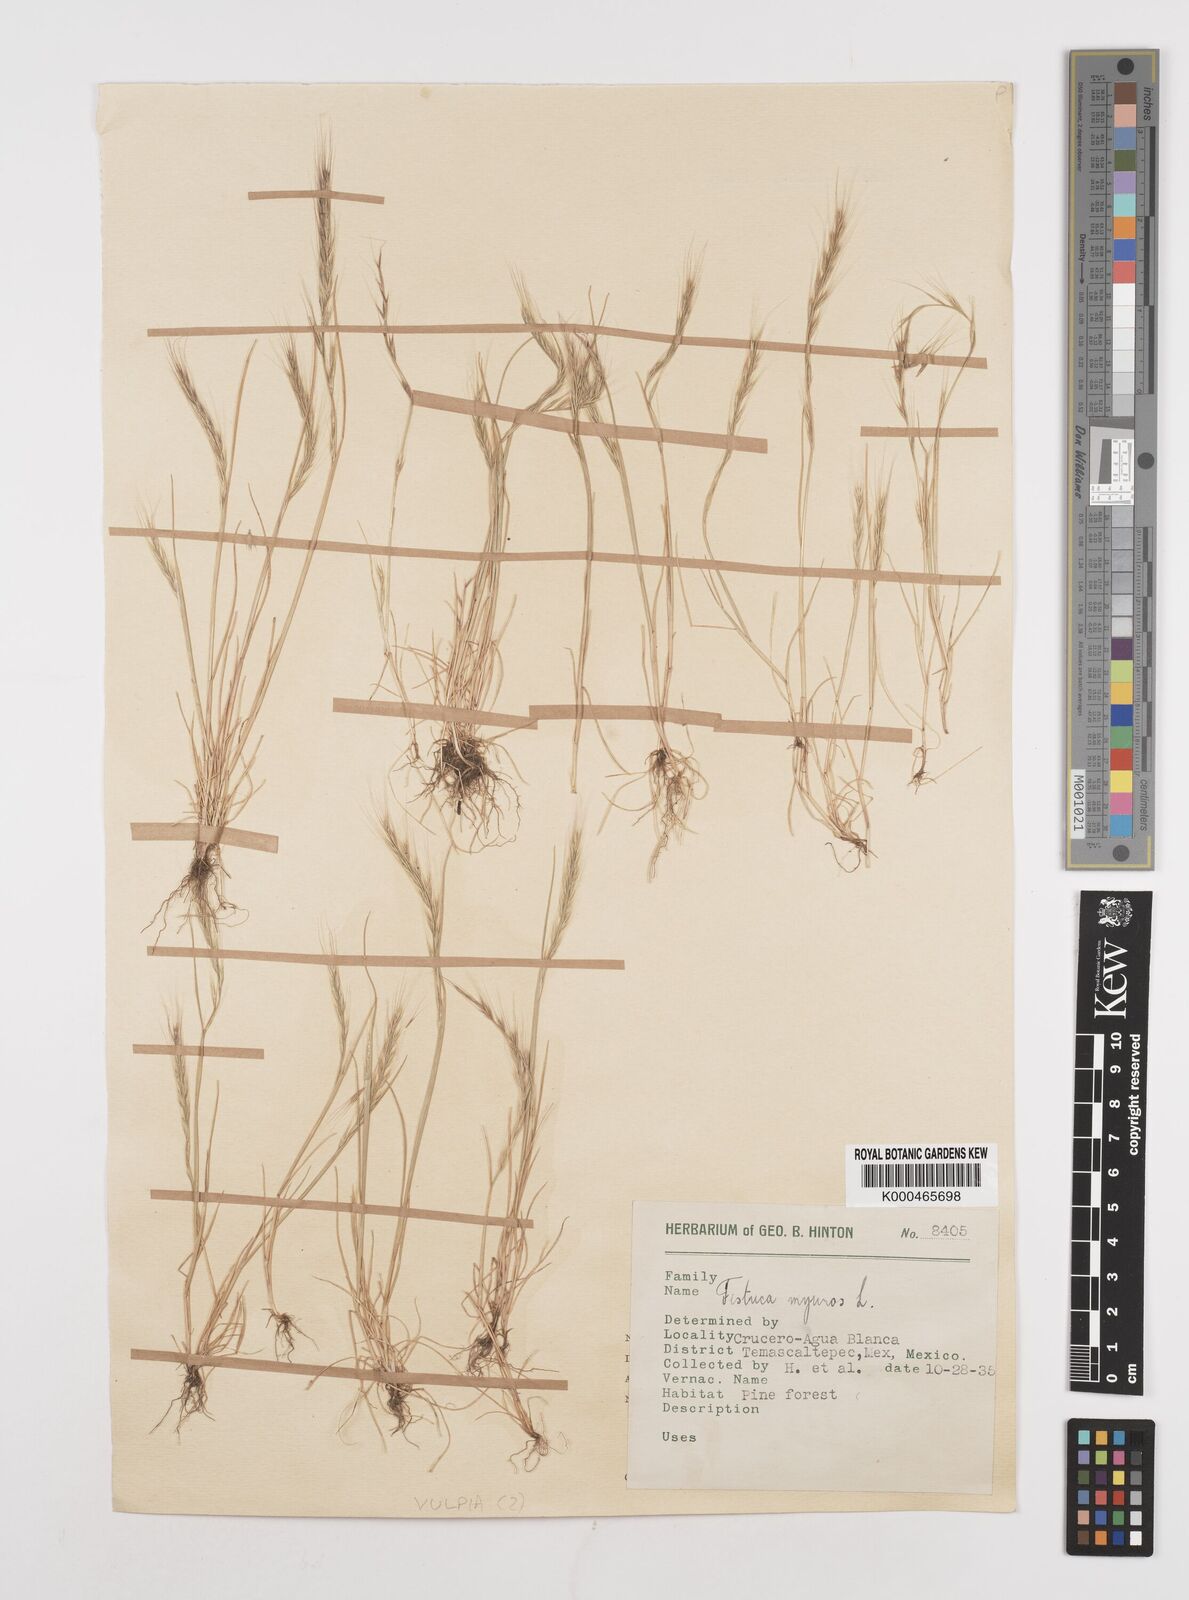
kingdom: Plantae
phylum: Tracheophyta
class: Liliopsida
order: Poales
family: Poaceae
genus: Festuca
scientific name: Festuca myuros
